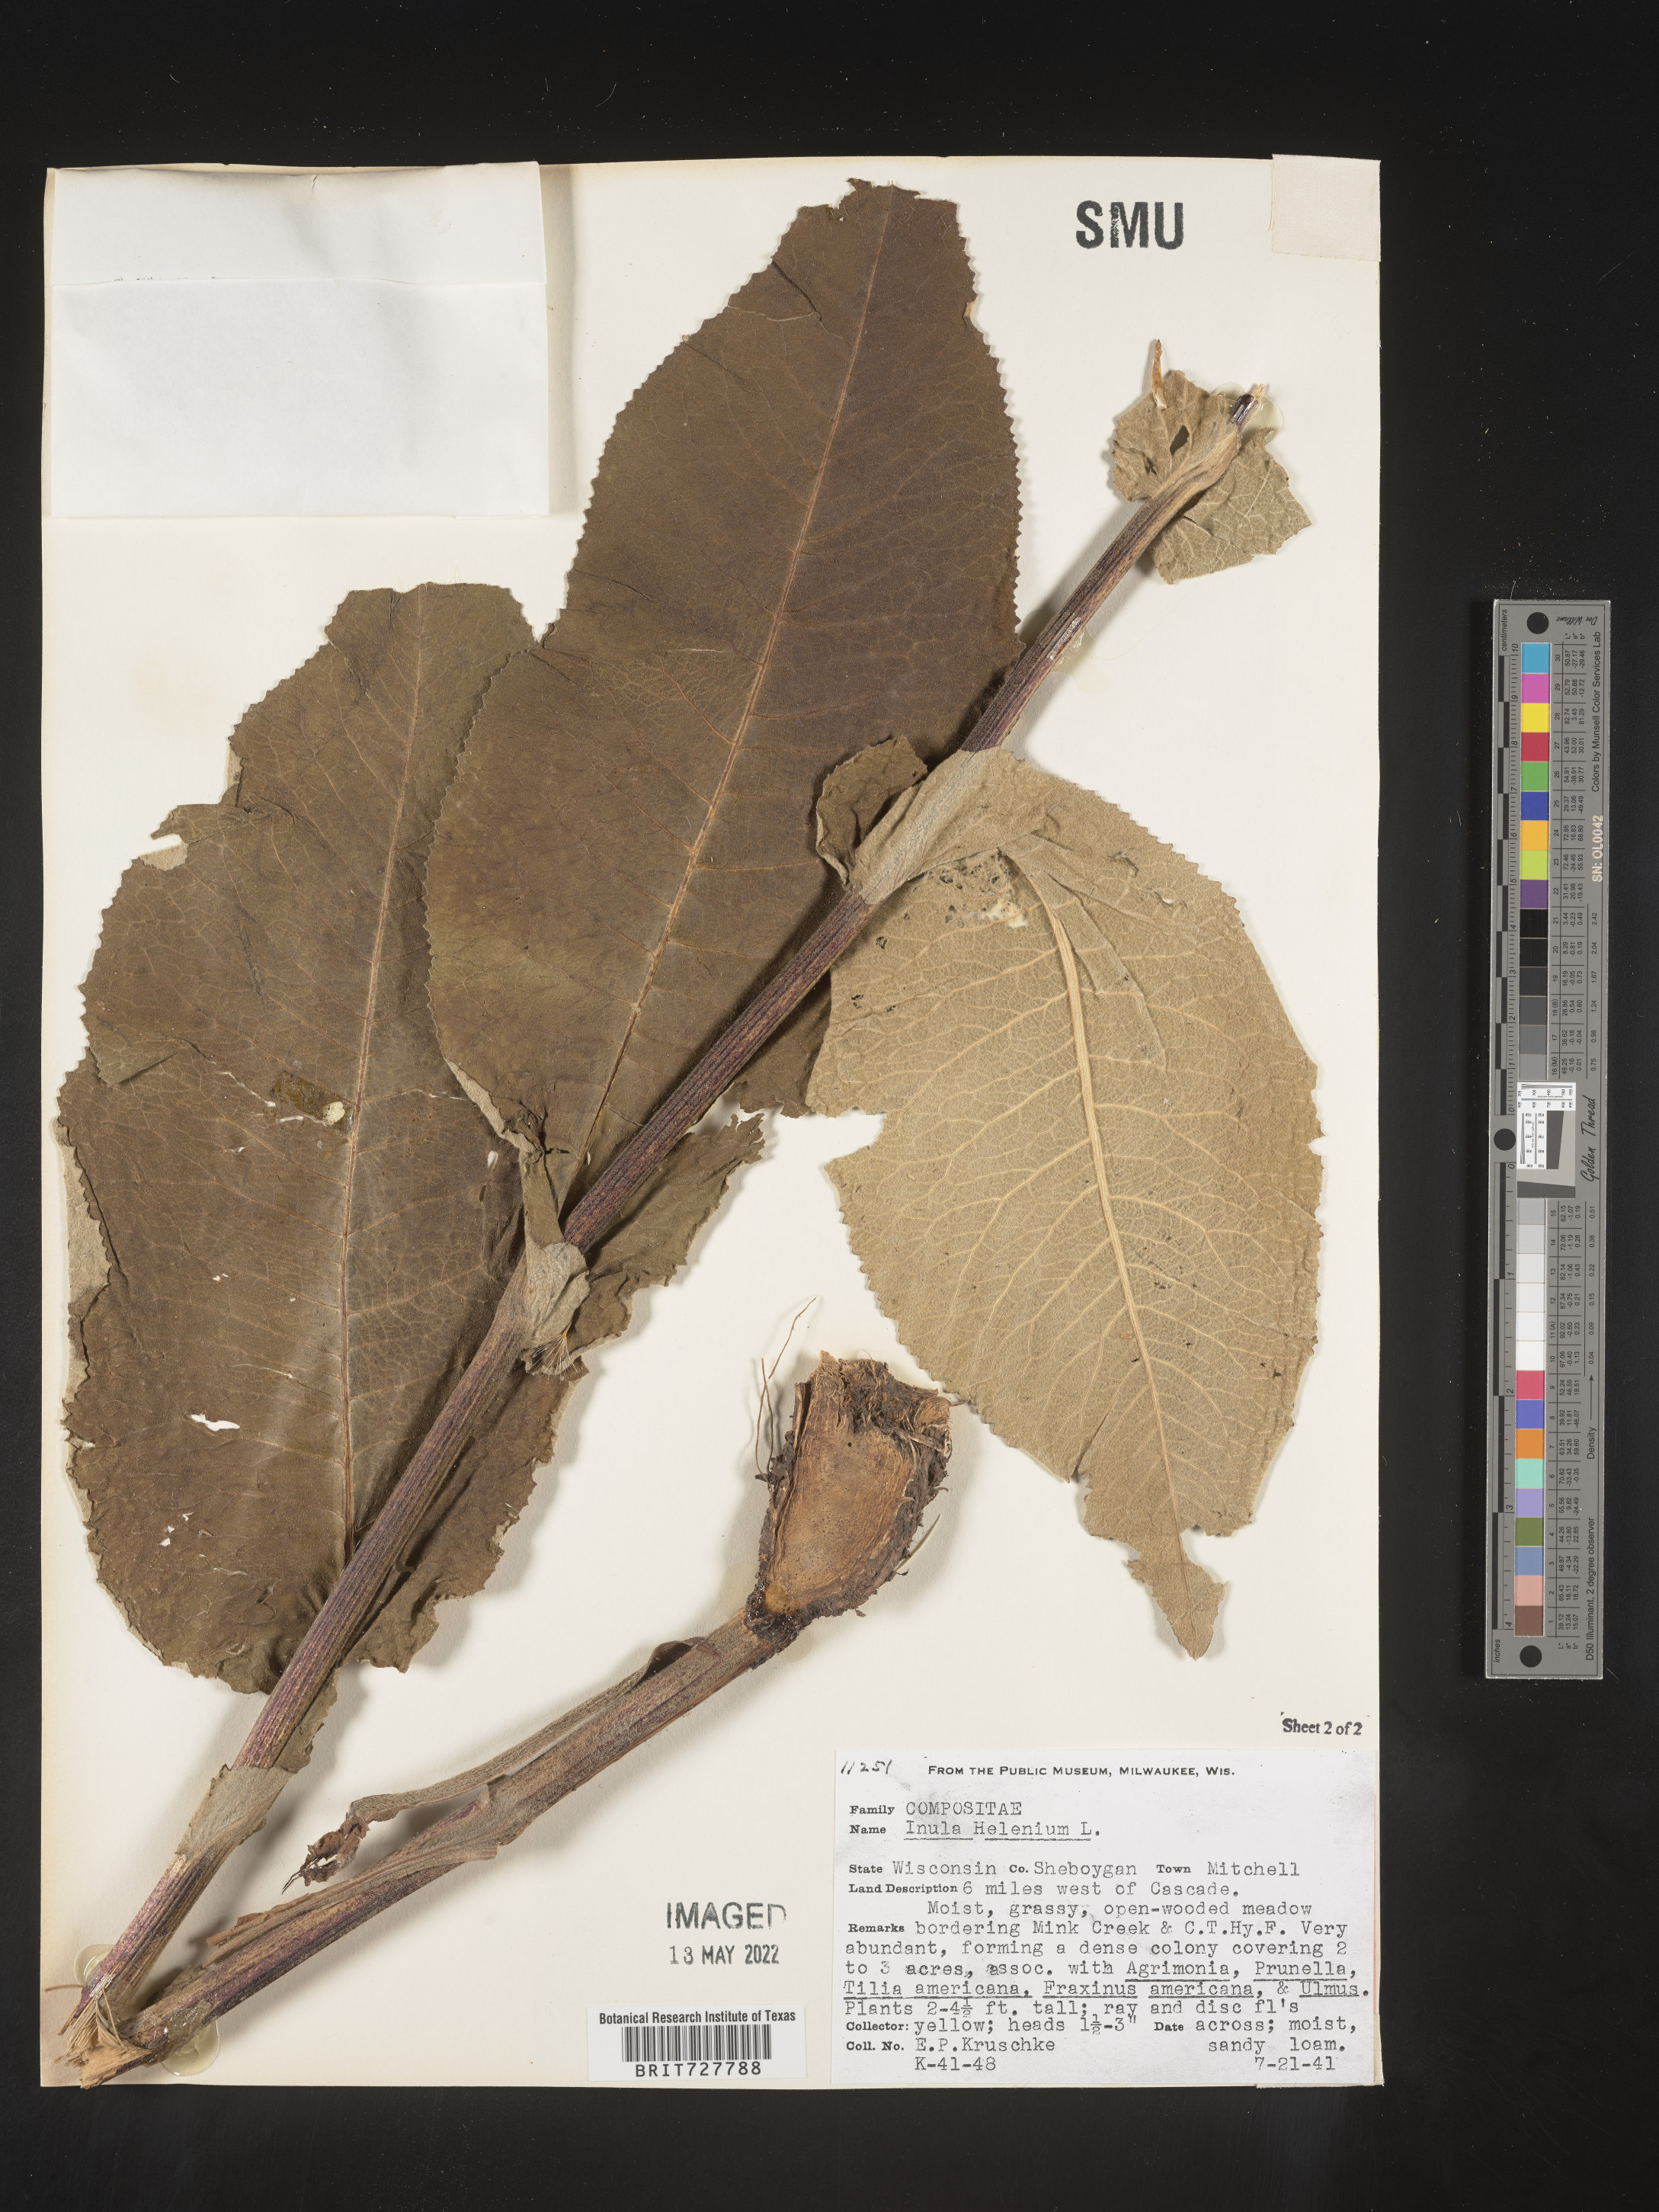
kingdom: Plantae
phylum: Tracheophyta
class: Magnoliopsida
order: Asterales
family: Asteraceae
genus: Inula
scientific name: Inula helenium
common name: Elecampane
